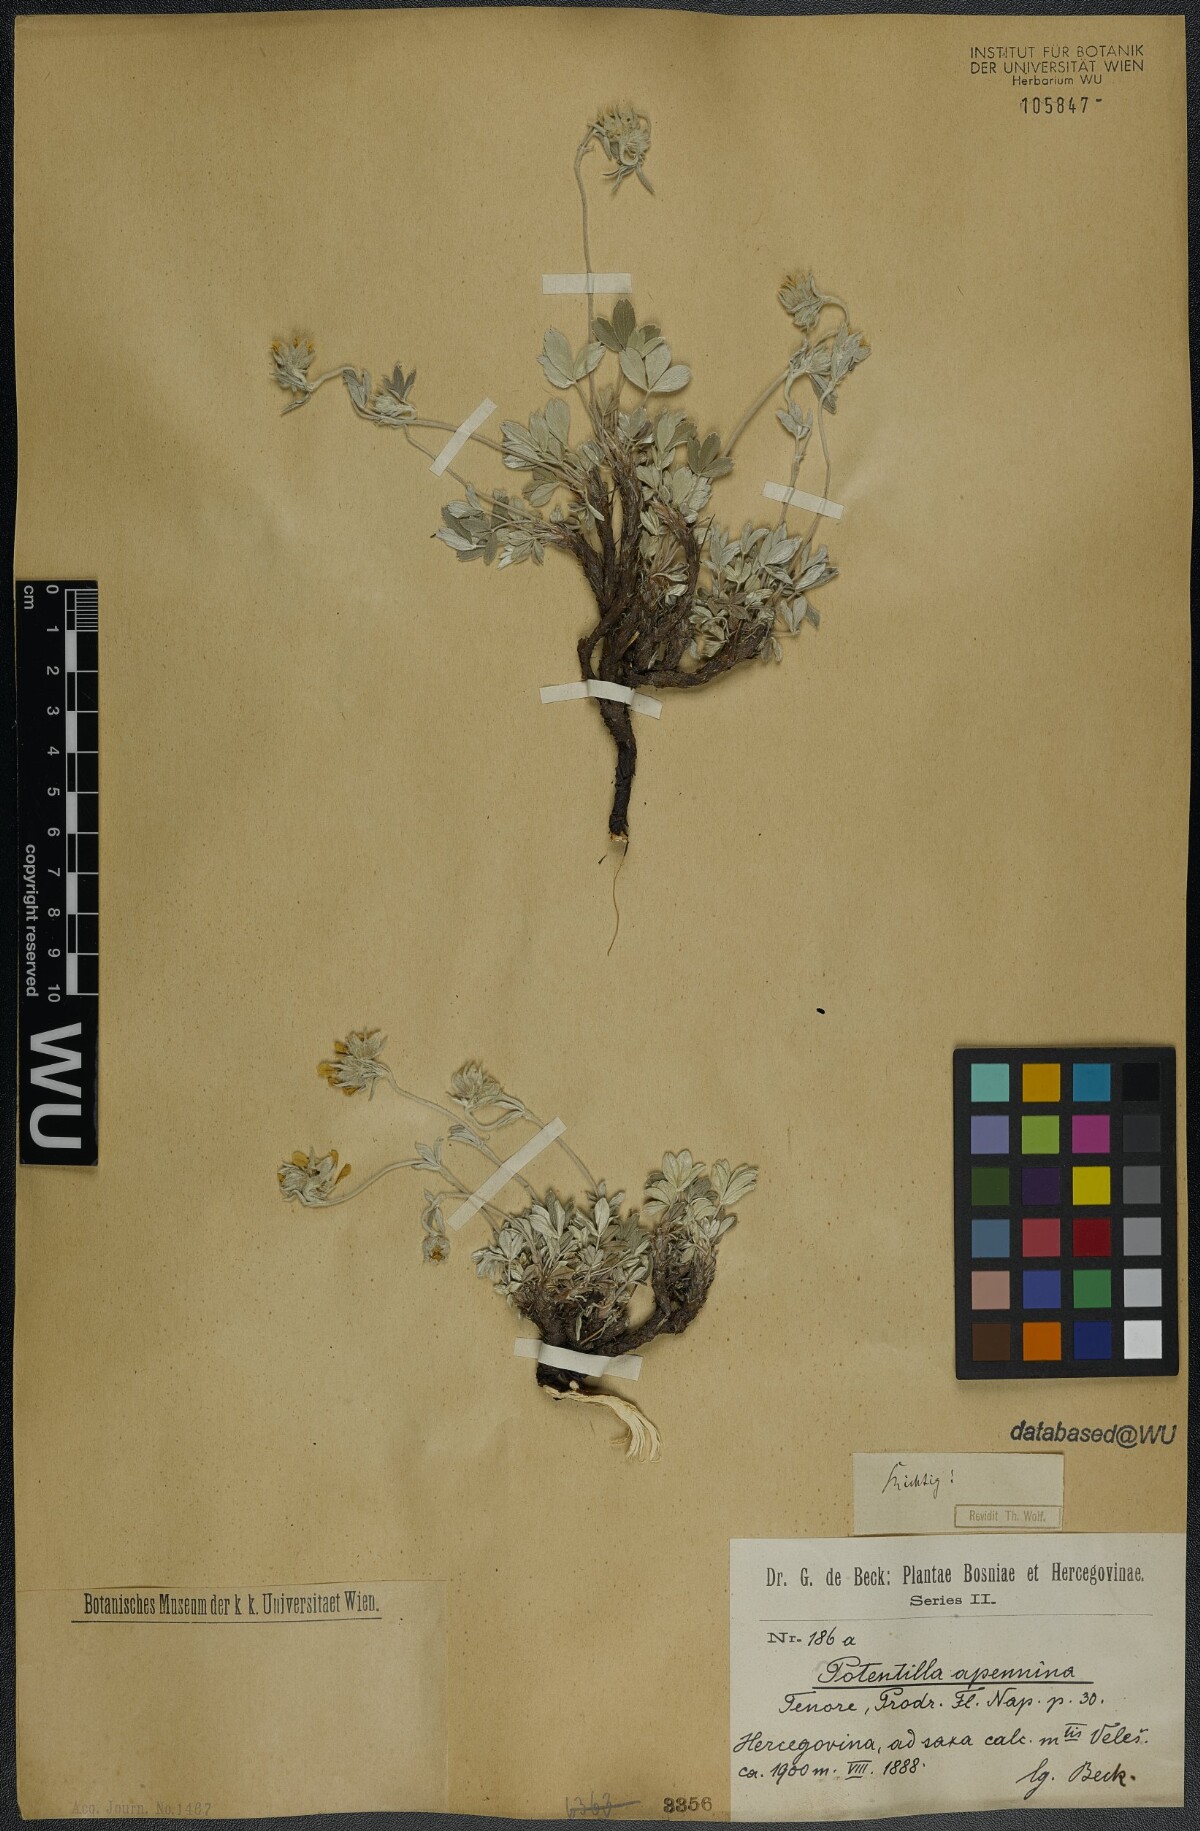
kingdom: Plantae
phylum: Tracheophyta
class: Magnoliopsida
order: Rosales
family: Rosaceae
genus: Potentilla
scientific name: Potentilla apennina
